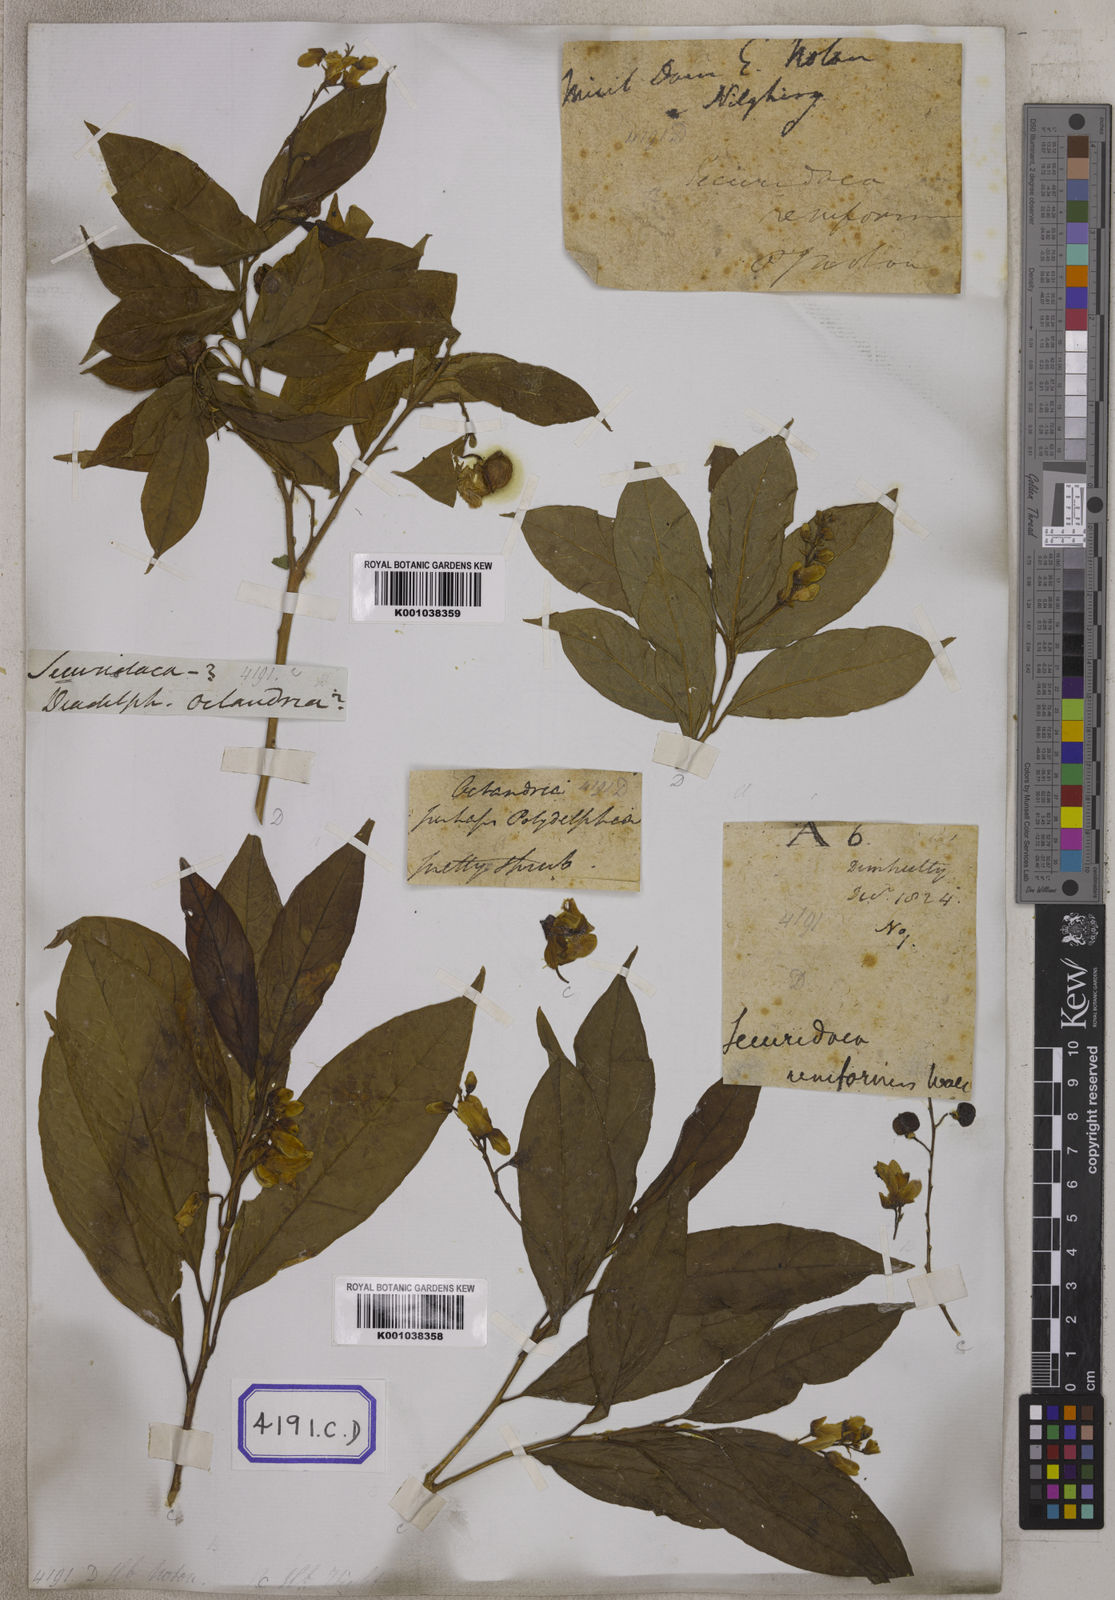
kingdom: Plantae
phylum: Tracheophyta
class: Magnoliopsida
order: Fabales
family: Polygalaceae
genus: Polygala
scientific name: Polygala arillata
